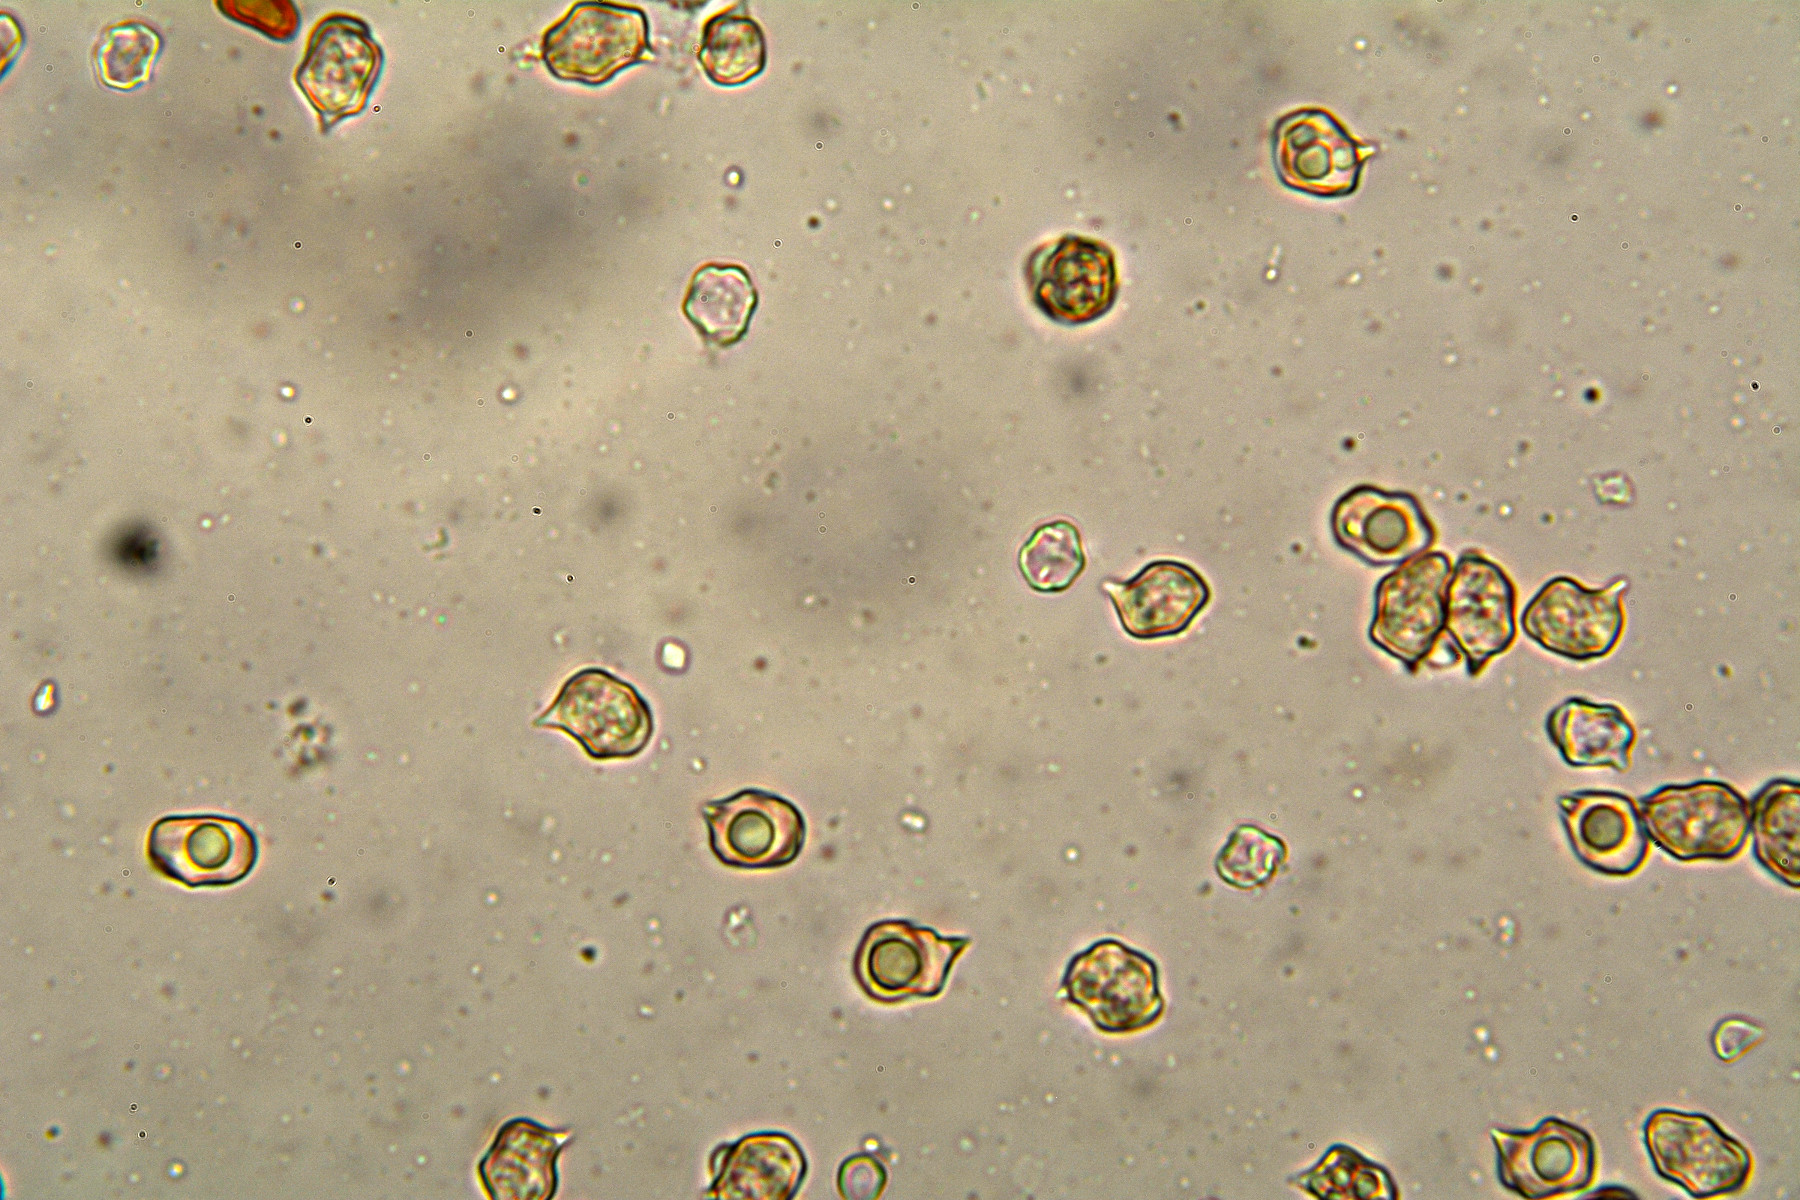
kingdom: Fungi
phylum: Basidiomycota
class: Agaricomycetes
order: Agaricales
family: Entolomataceae
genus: Entoloma
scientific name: Entoloma cetratum
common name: voks-rødblad
